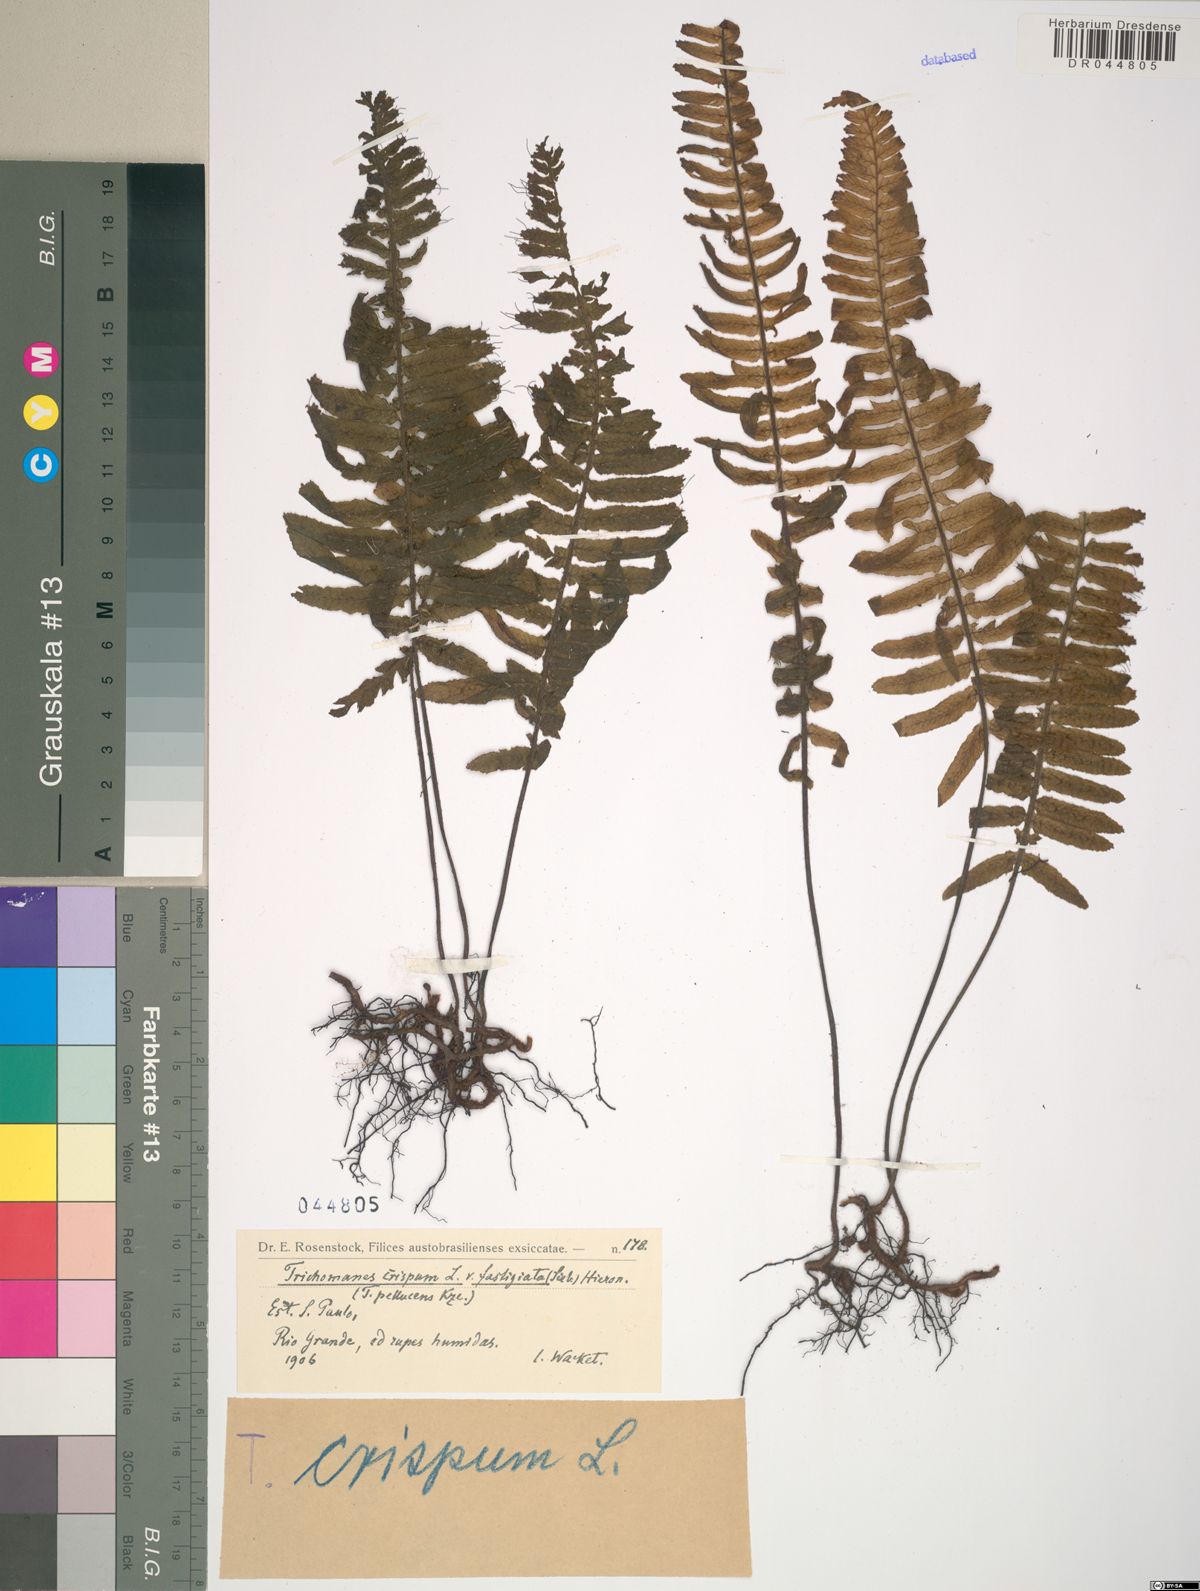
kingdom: Plantae
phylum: Tracheophyta
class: Polypodiopsida
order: Hymenophyllales
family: Hymenophyllaceae
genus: Trichomanes
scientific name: Trichomanes crispum
